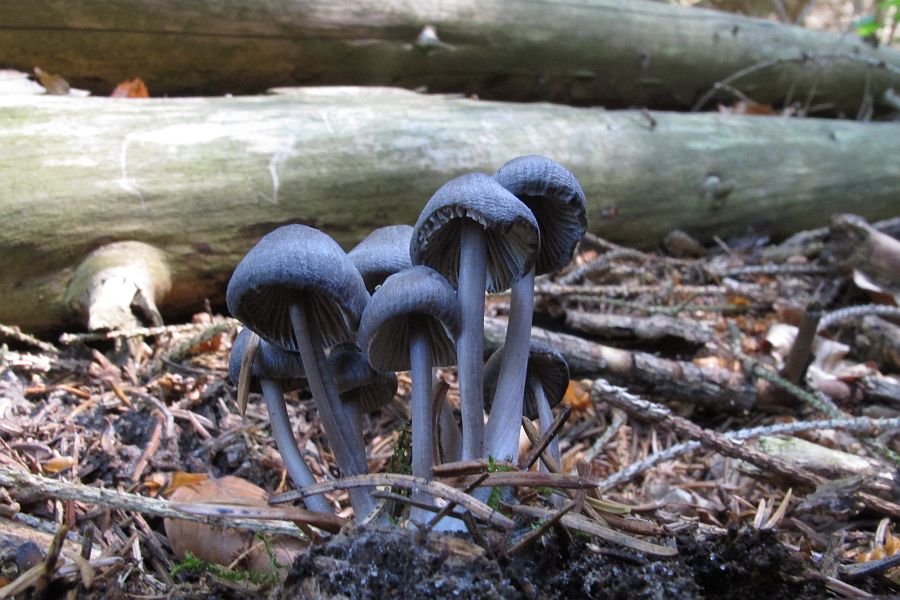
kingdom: Fungi
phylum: Basidiomycota
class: Agaricomycetes
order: Agaricales
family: Mycenaceae
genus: Mycena
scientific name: Mycena abramsii
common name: sommer-huesvamp
